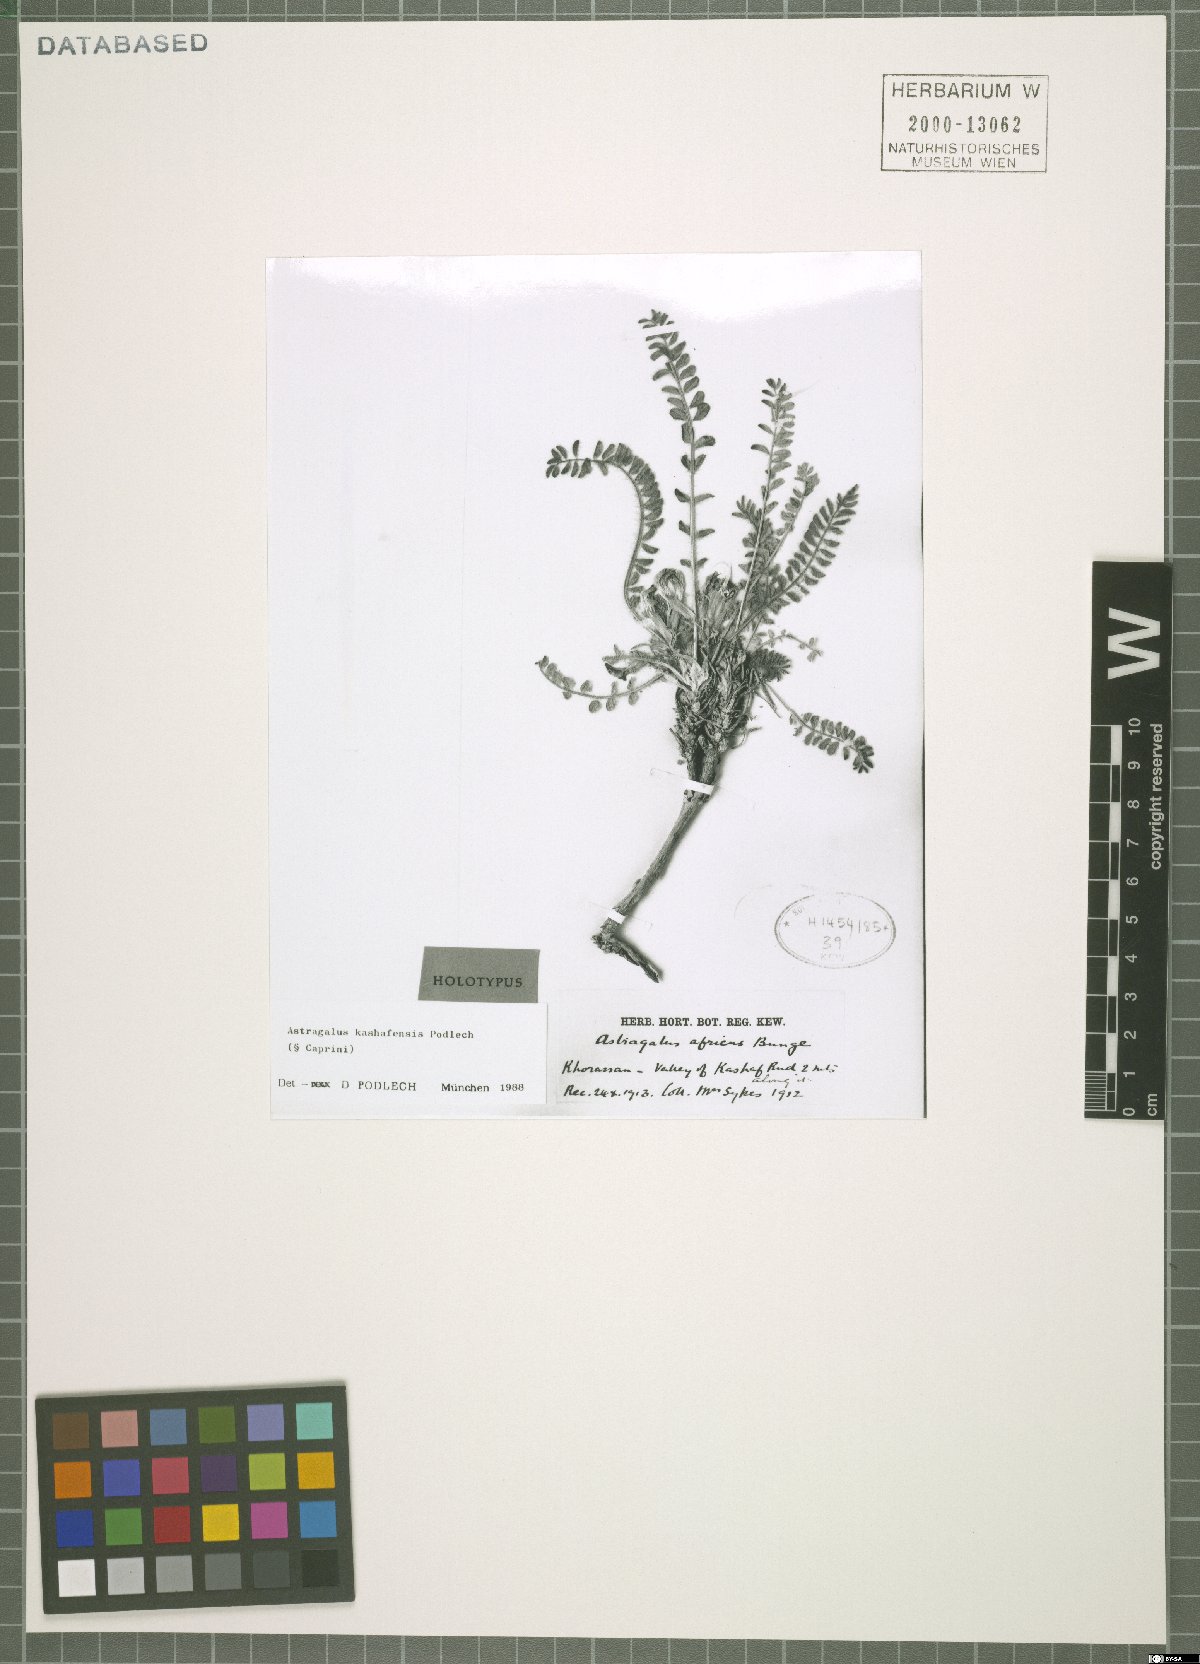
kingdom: Plantae
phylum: Tracheophyta
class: Magnoliopsida
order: Fabales
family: Fabaceae
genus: Astragalus
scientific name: Astragalus kashafensis
